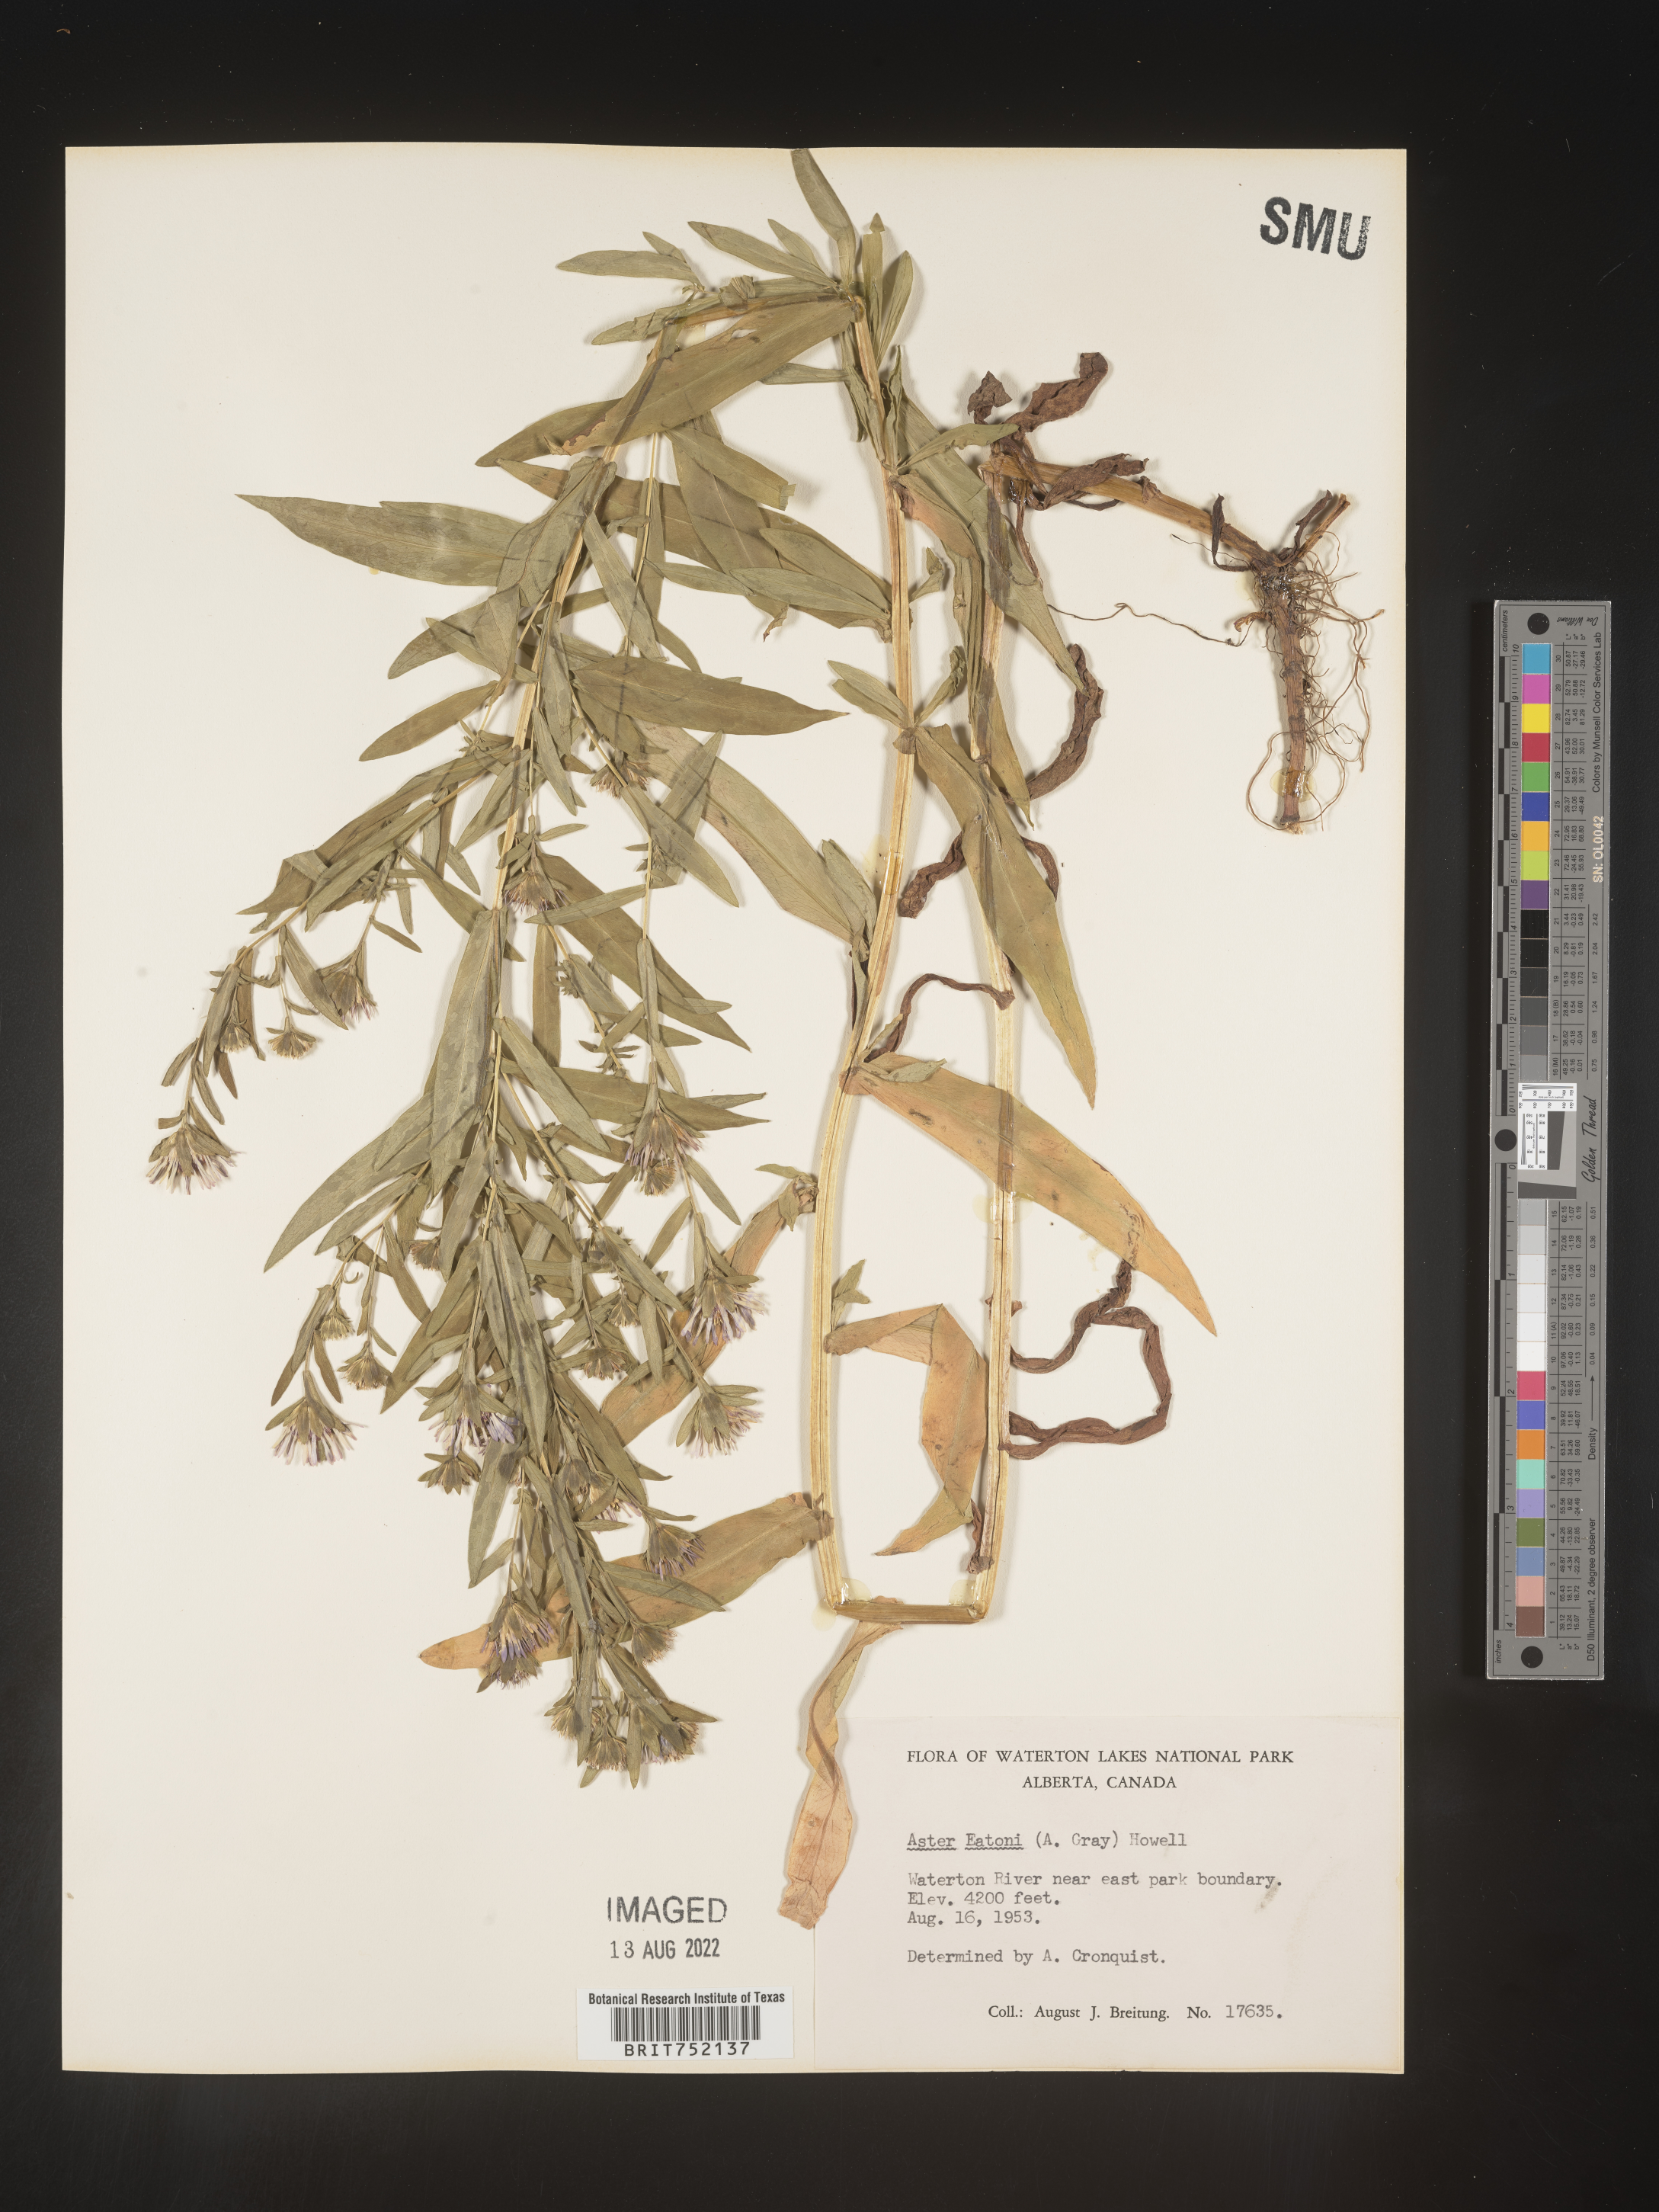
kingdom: Plantae
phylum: Tracheophyta
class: Magnoliopsida
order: Asterales
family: Asteraceae
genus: Symphyotrichum
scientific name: Symphyotrichum bracteolatum
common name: Eaton's aster
